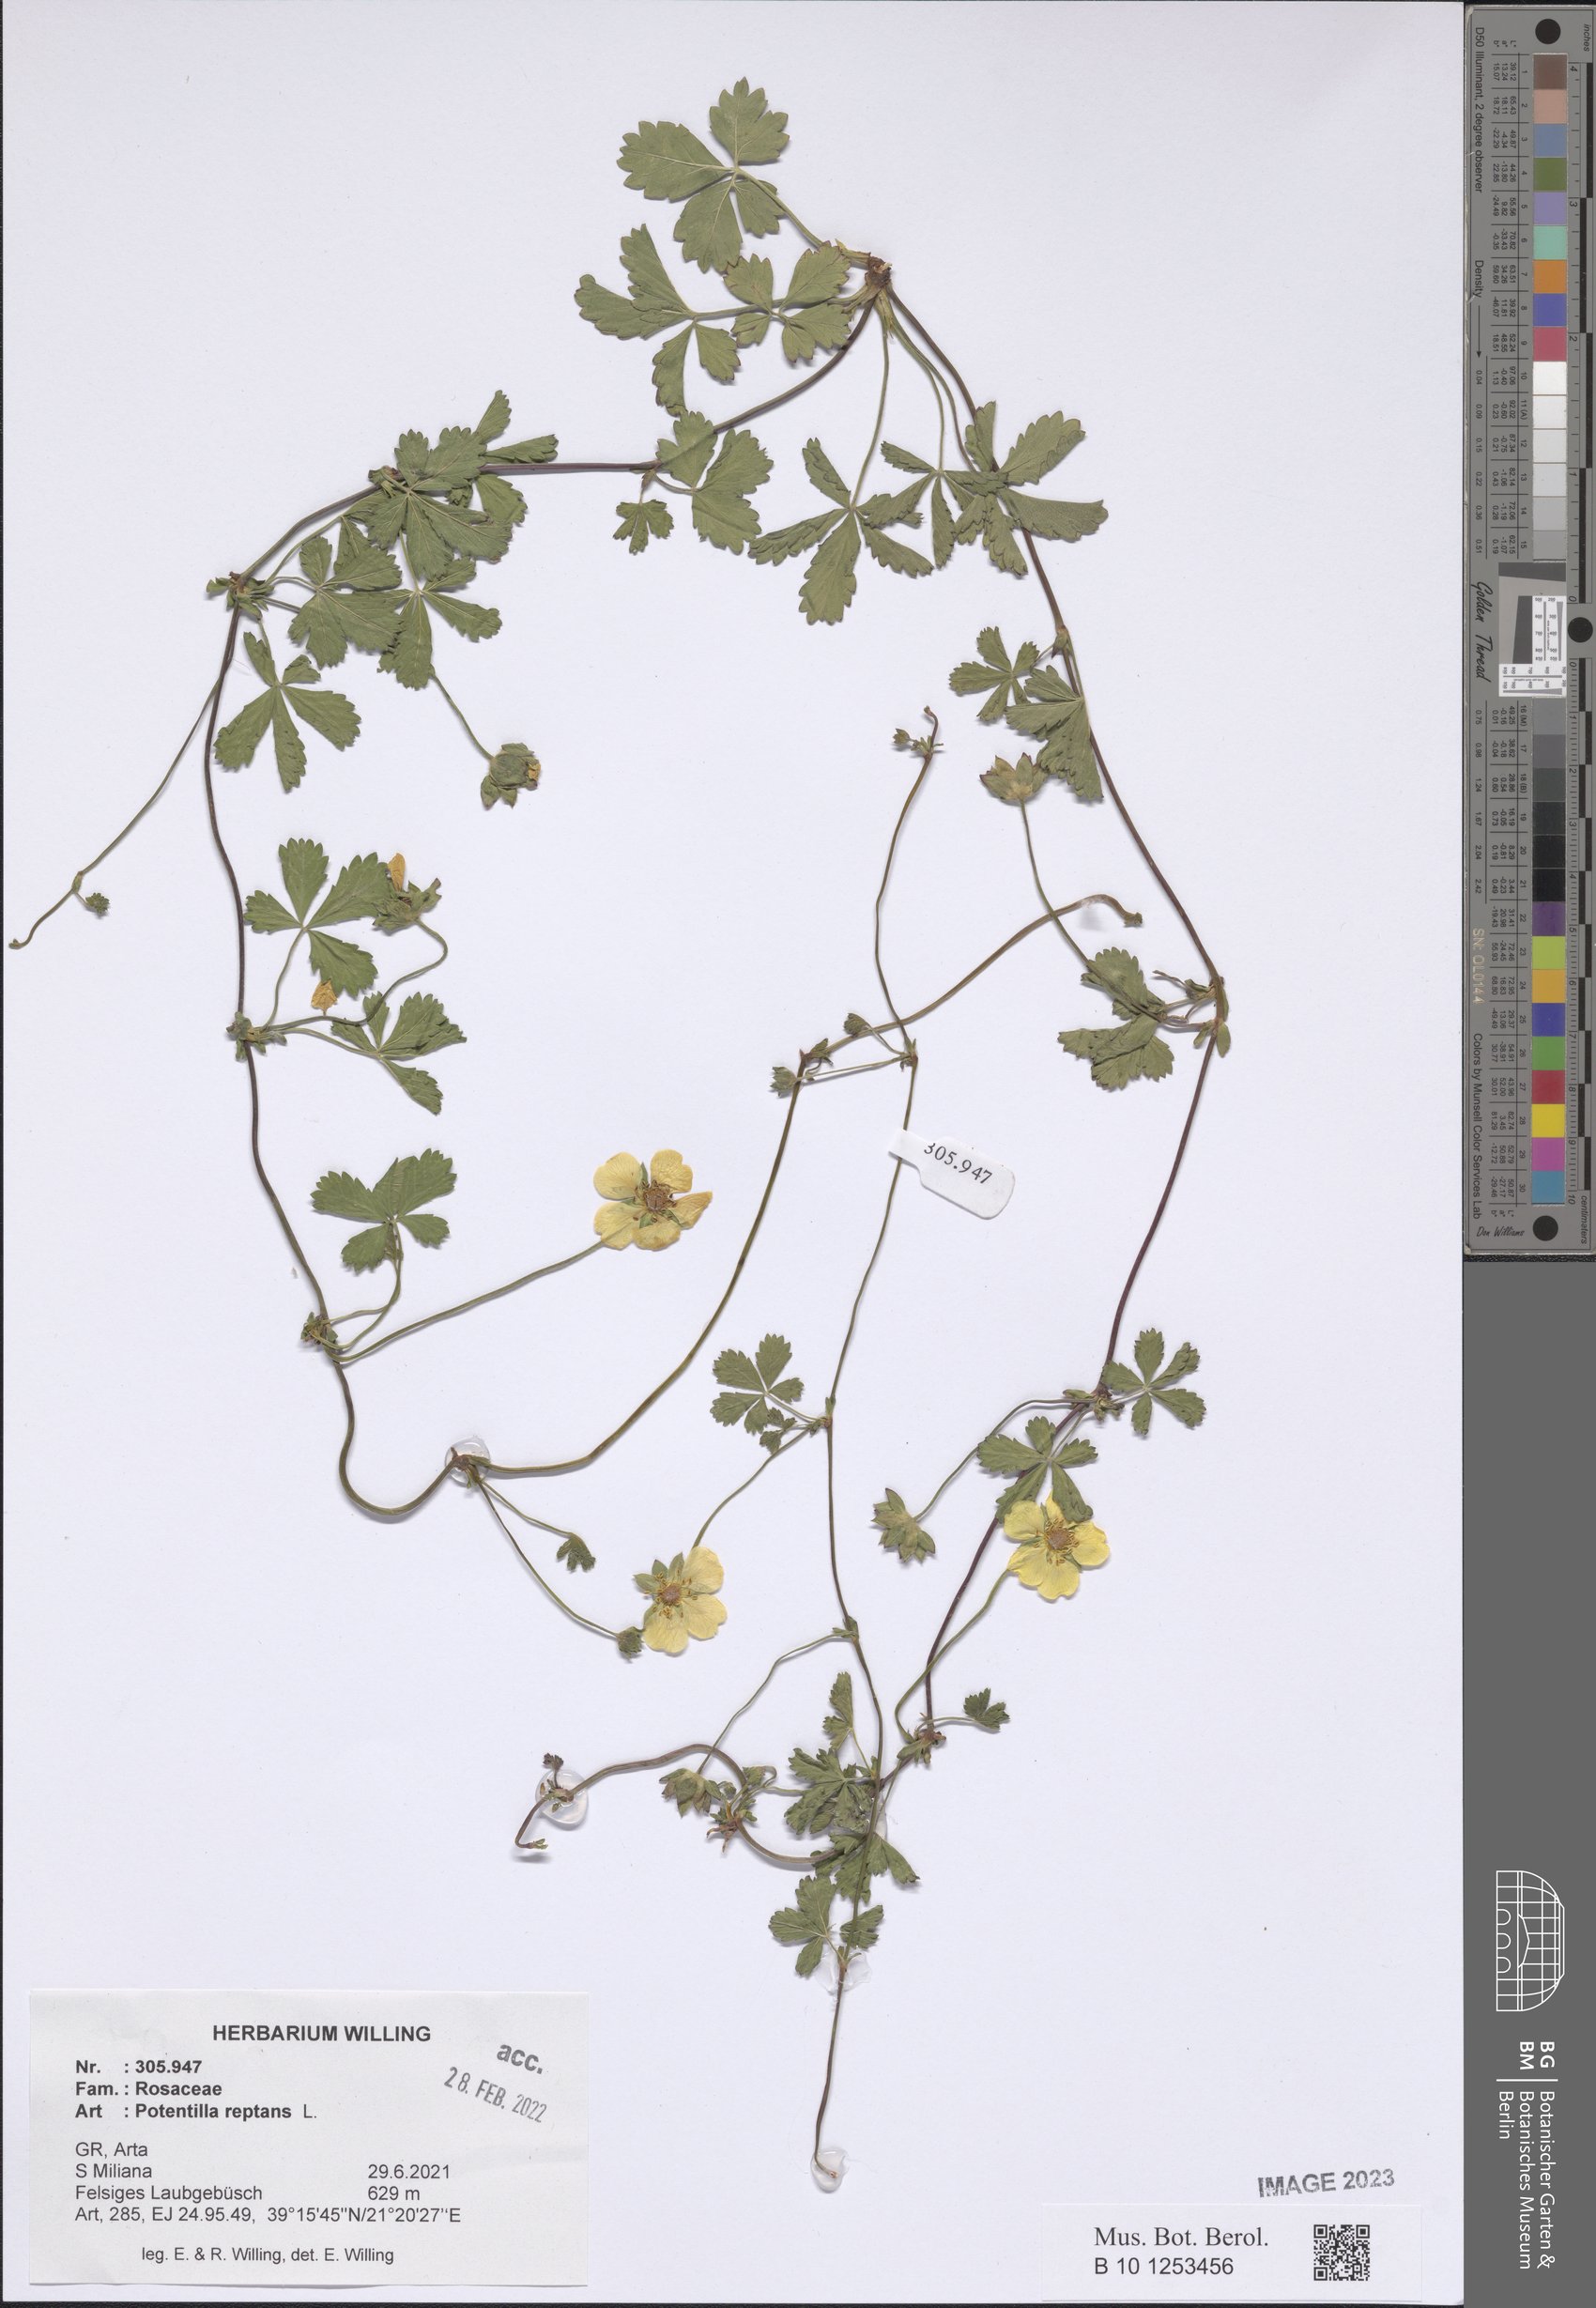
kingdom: Plantae
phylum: Tracheophyta
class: Magnoliopsida
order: Rosales
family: Rosaceae
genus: Potentilla
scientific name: Potentilla reptans
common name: Creeping cinquefoil
